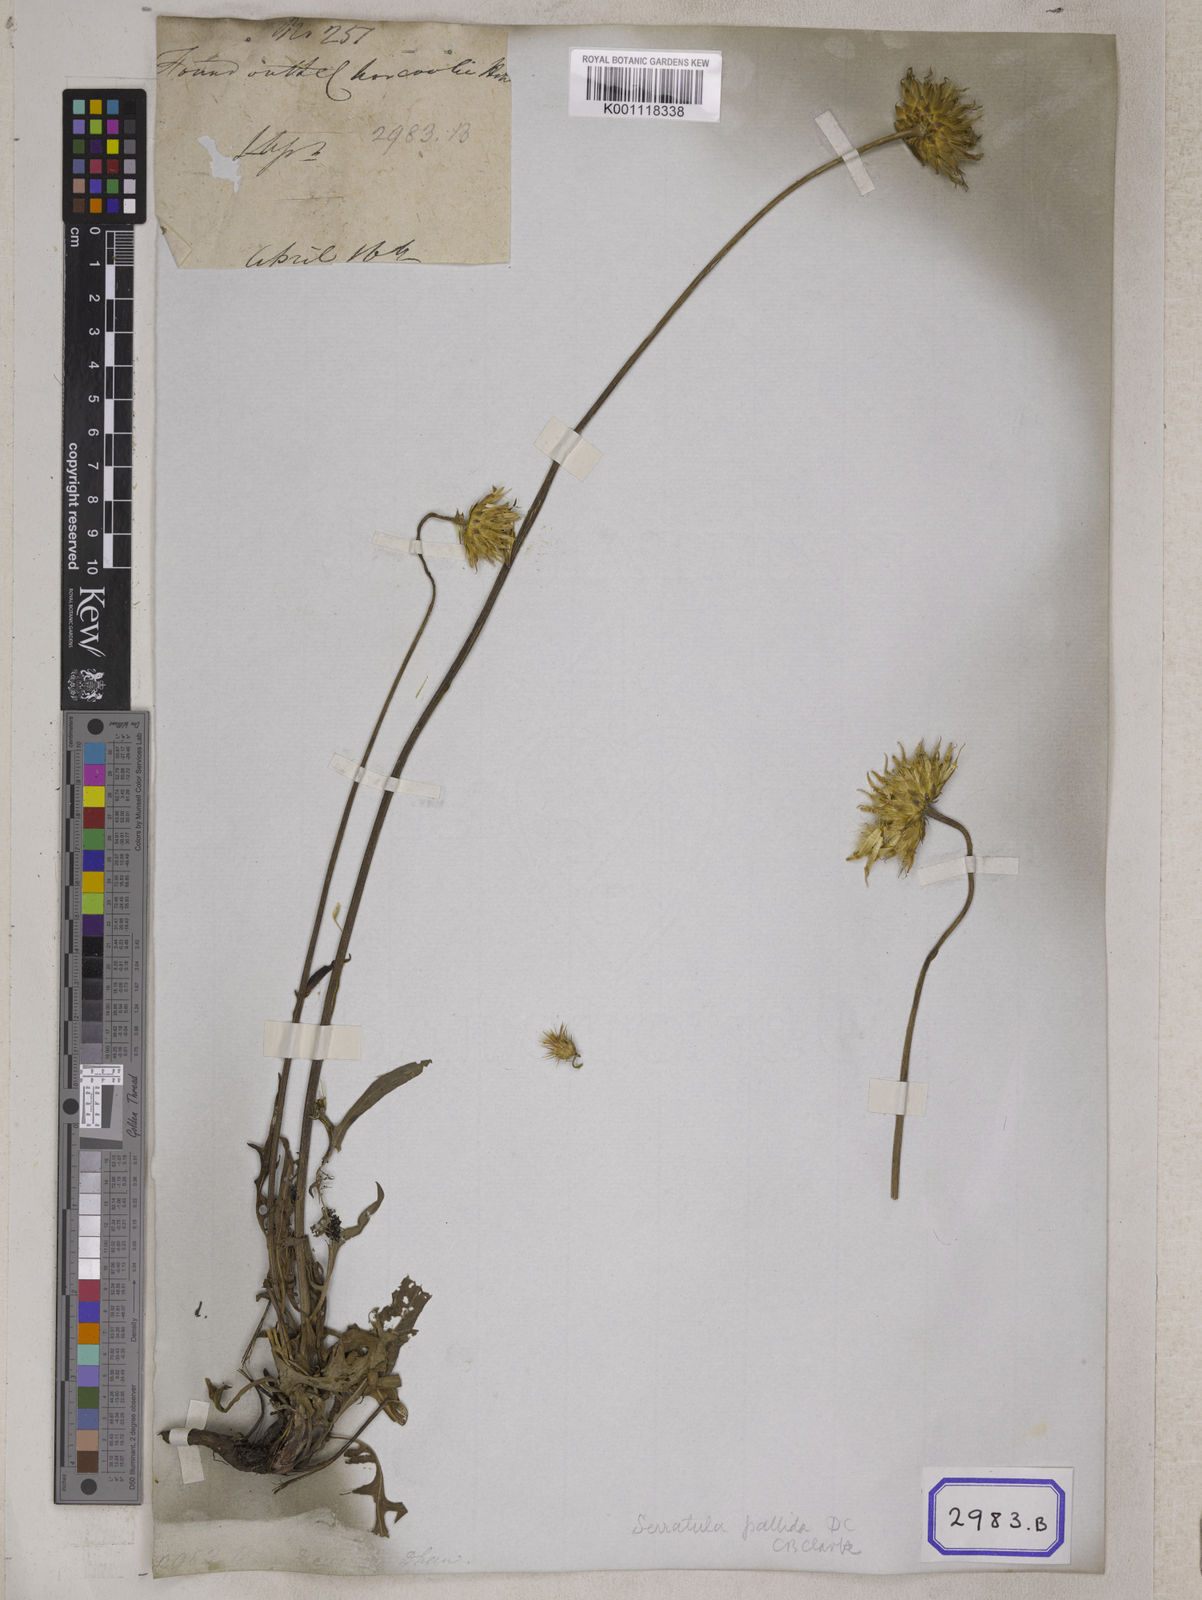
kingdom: Plantae
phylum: Tracheophyta
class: Magnoliopsida
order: Asterales
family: Asteraceae
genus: Centaurea
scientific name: Centaurea
